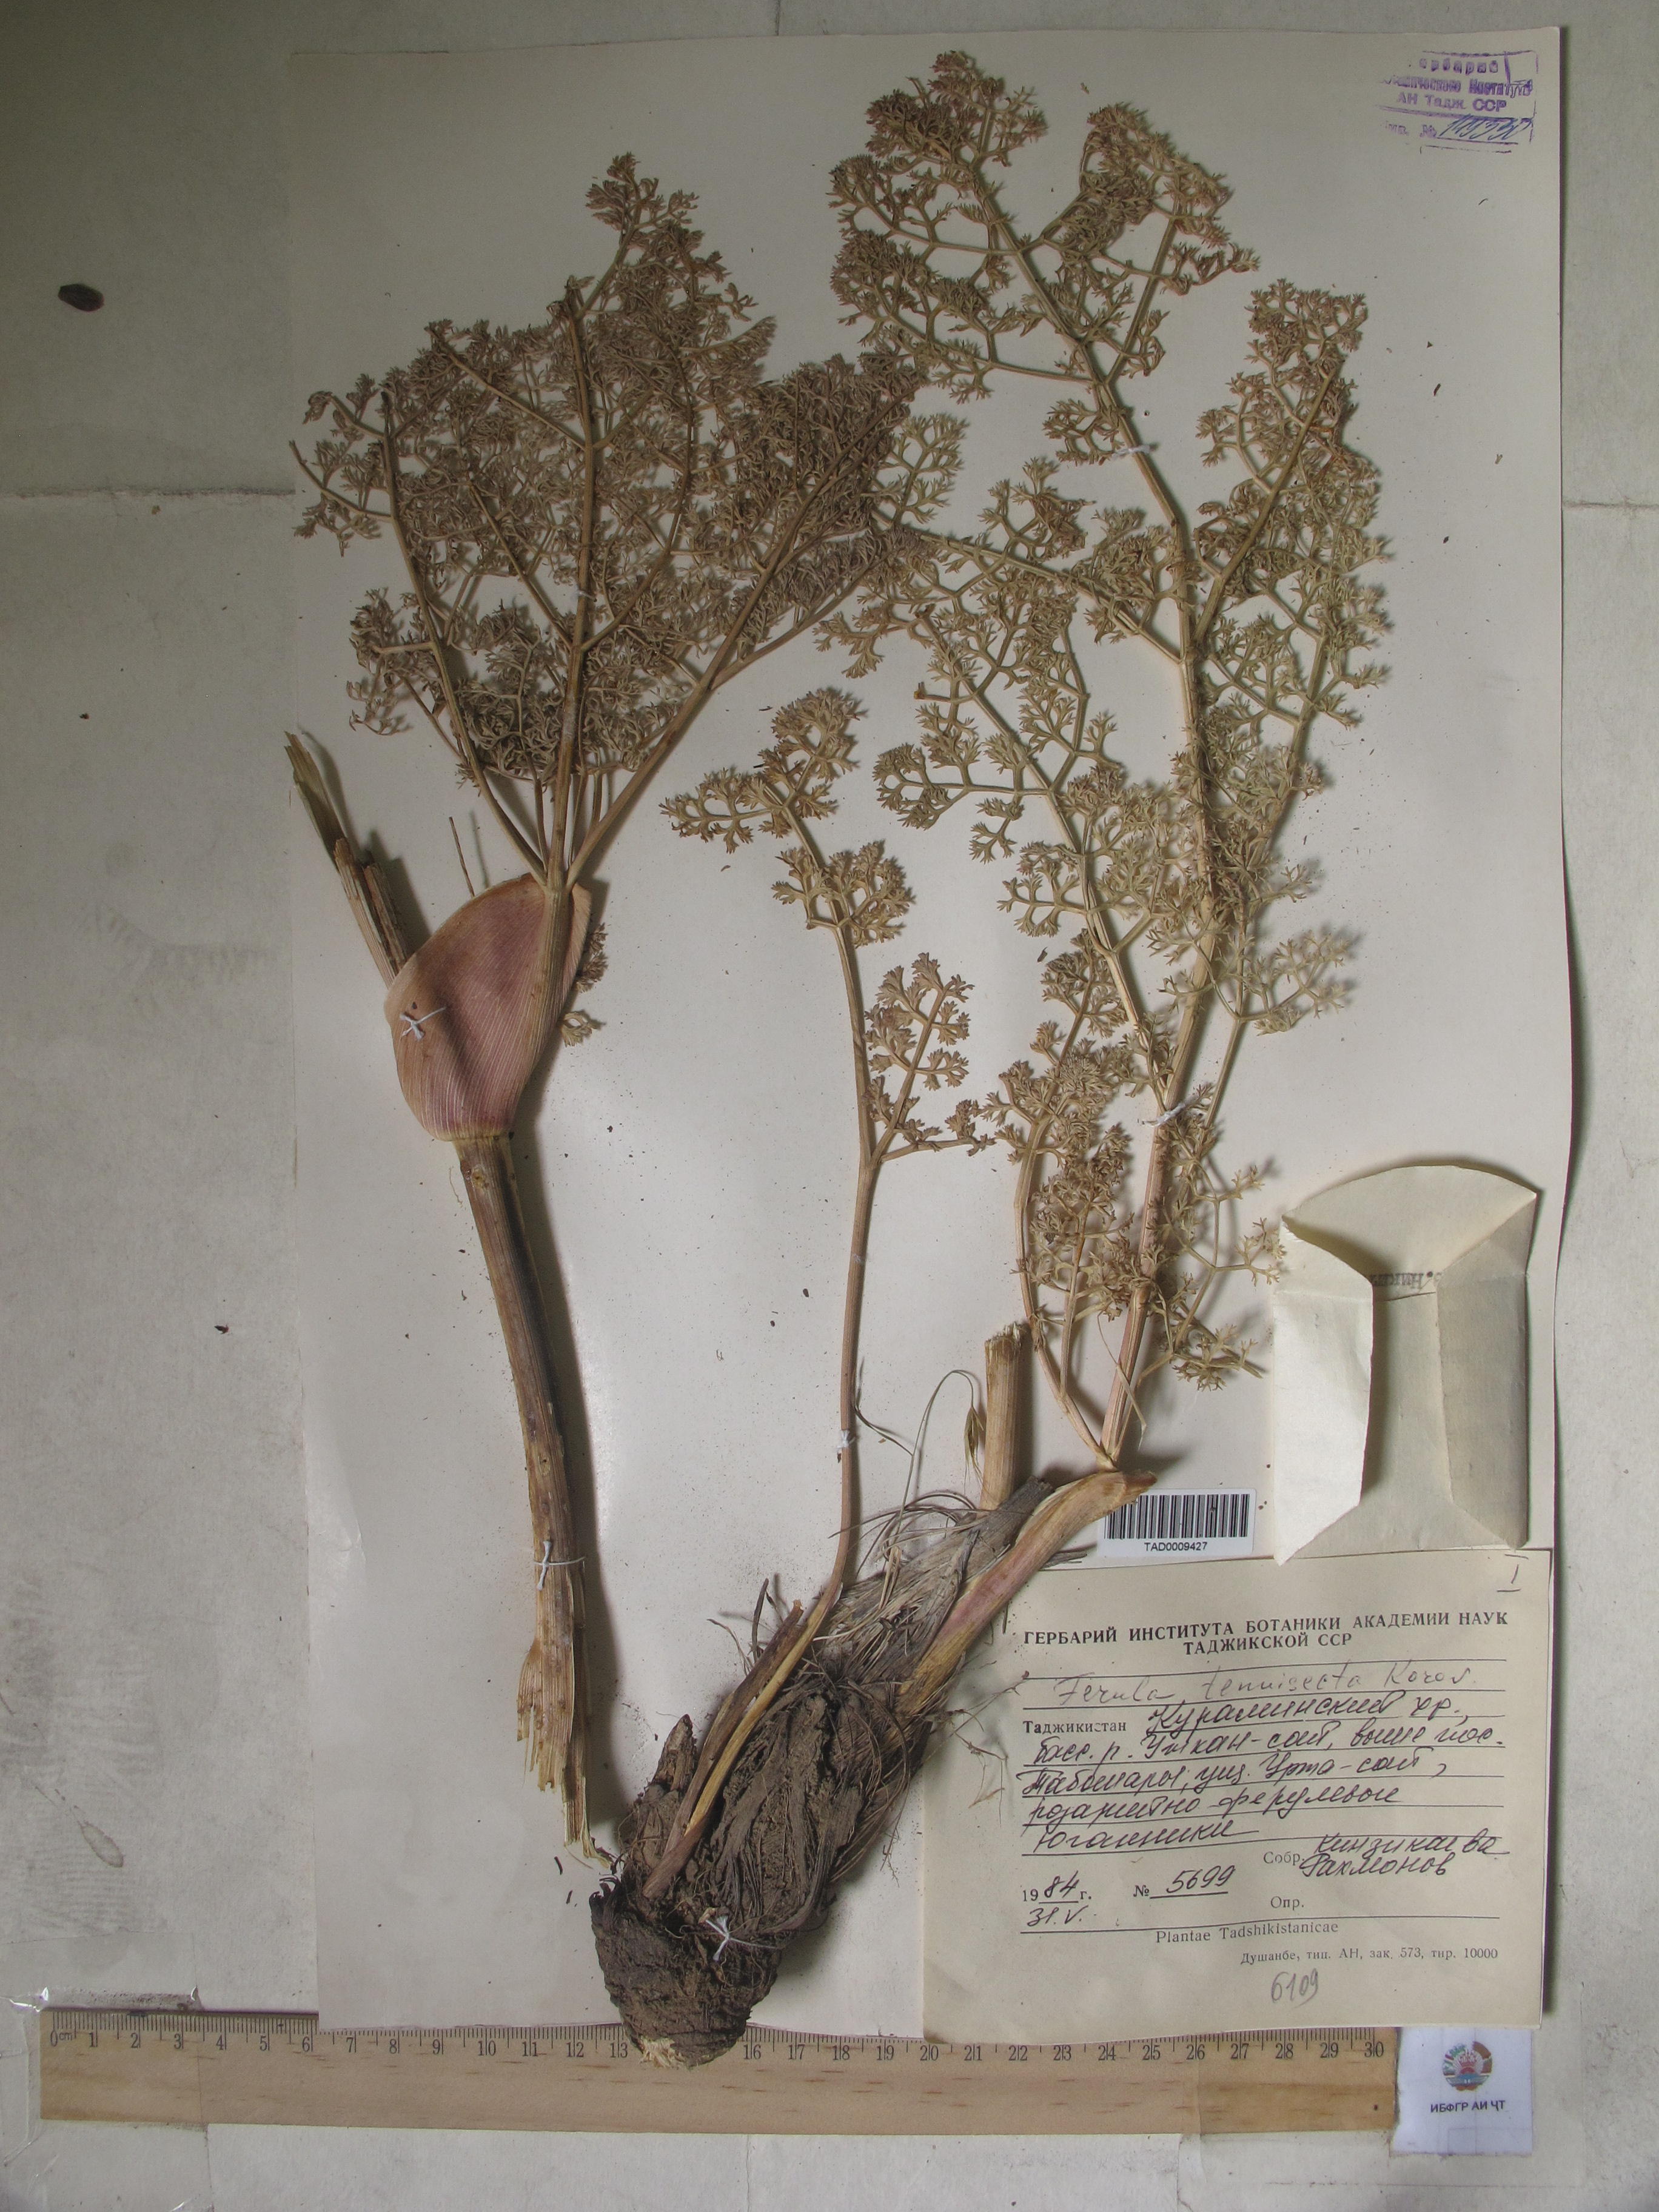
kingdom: Plantae
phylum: Tracheophyta
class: Magnoliopsida
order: Apiales
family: Apiaceae
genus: Ferula
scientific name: Ferula tenuisecta
